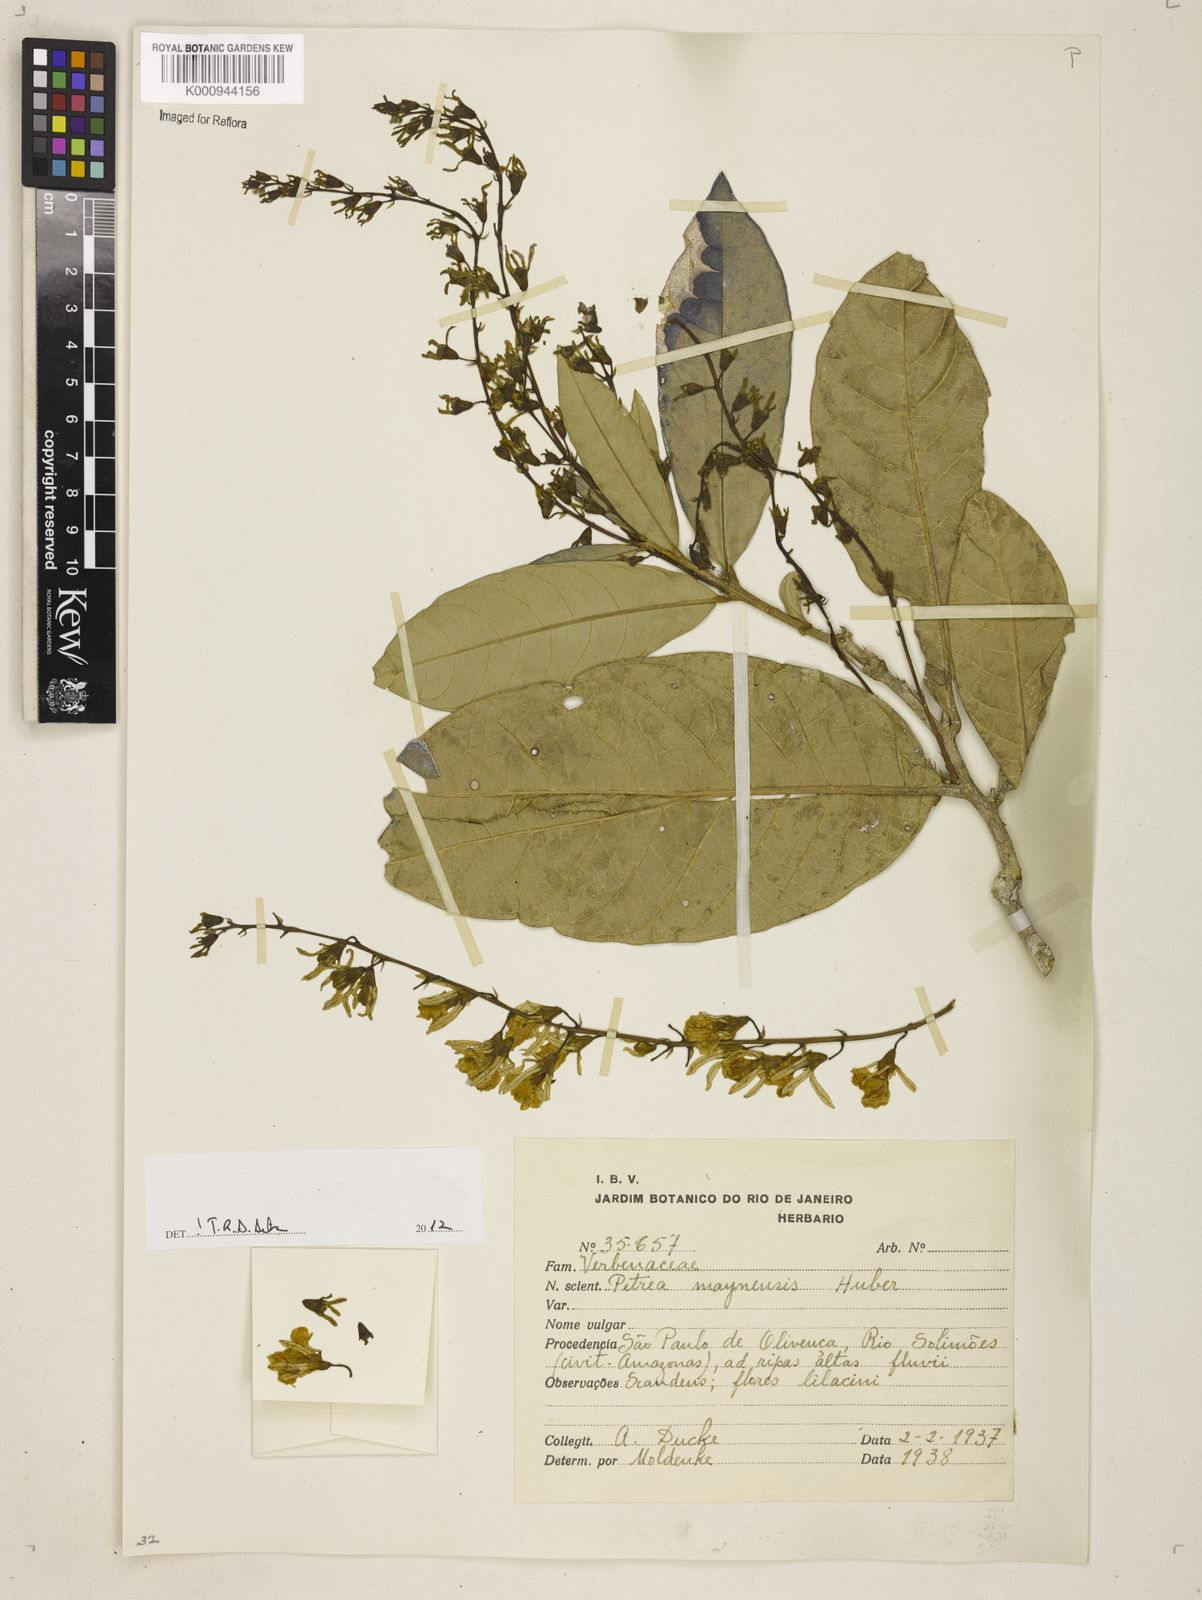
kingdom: Plantae
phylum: Tracheophyta
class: Magnoliopsida
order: Lamiales
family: Verbenaceae
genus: Petrea
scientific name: Petrea maynensis
